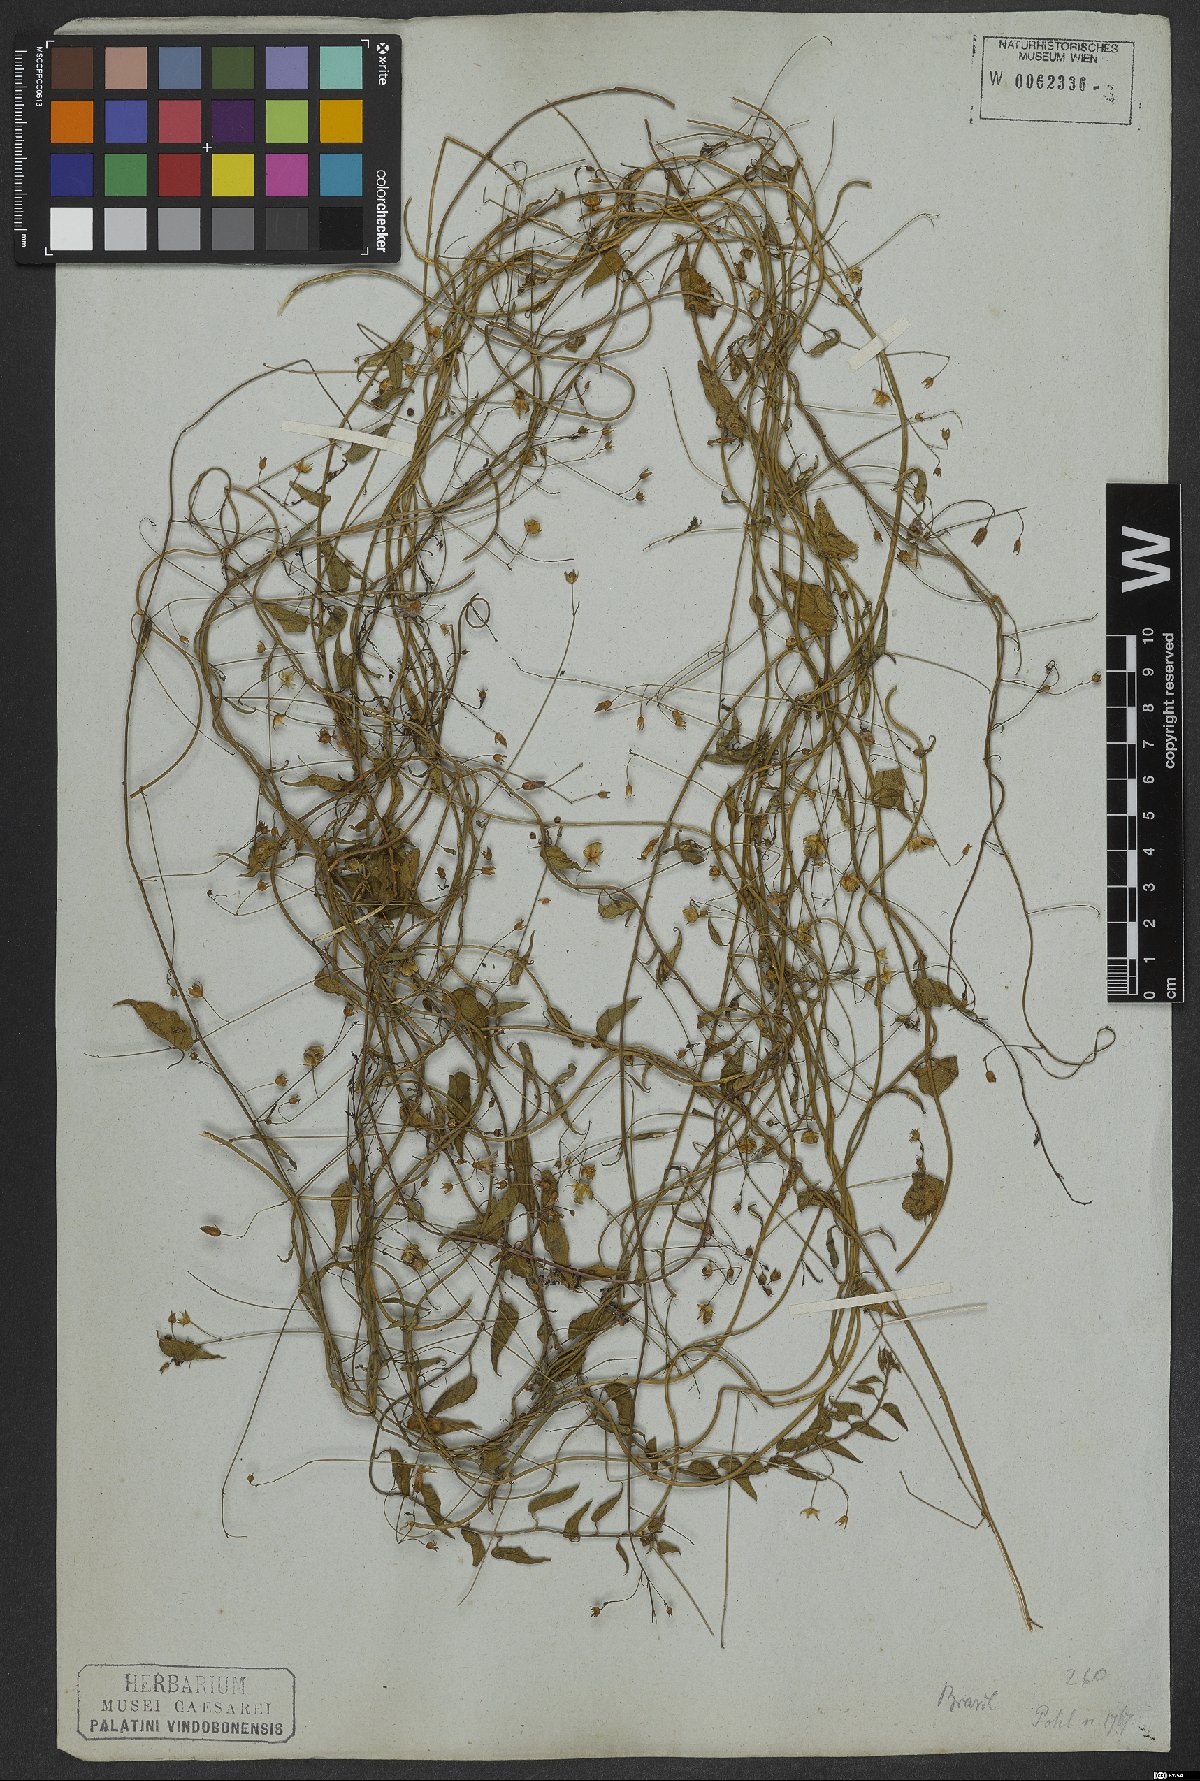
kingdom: Plantae
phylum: Tracheophyta
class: Magnoliopsida
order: Solanales
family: Convolvulaceae
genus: Jacquemontia
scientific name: Jacquemontia evolvuloides
